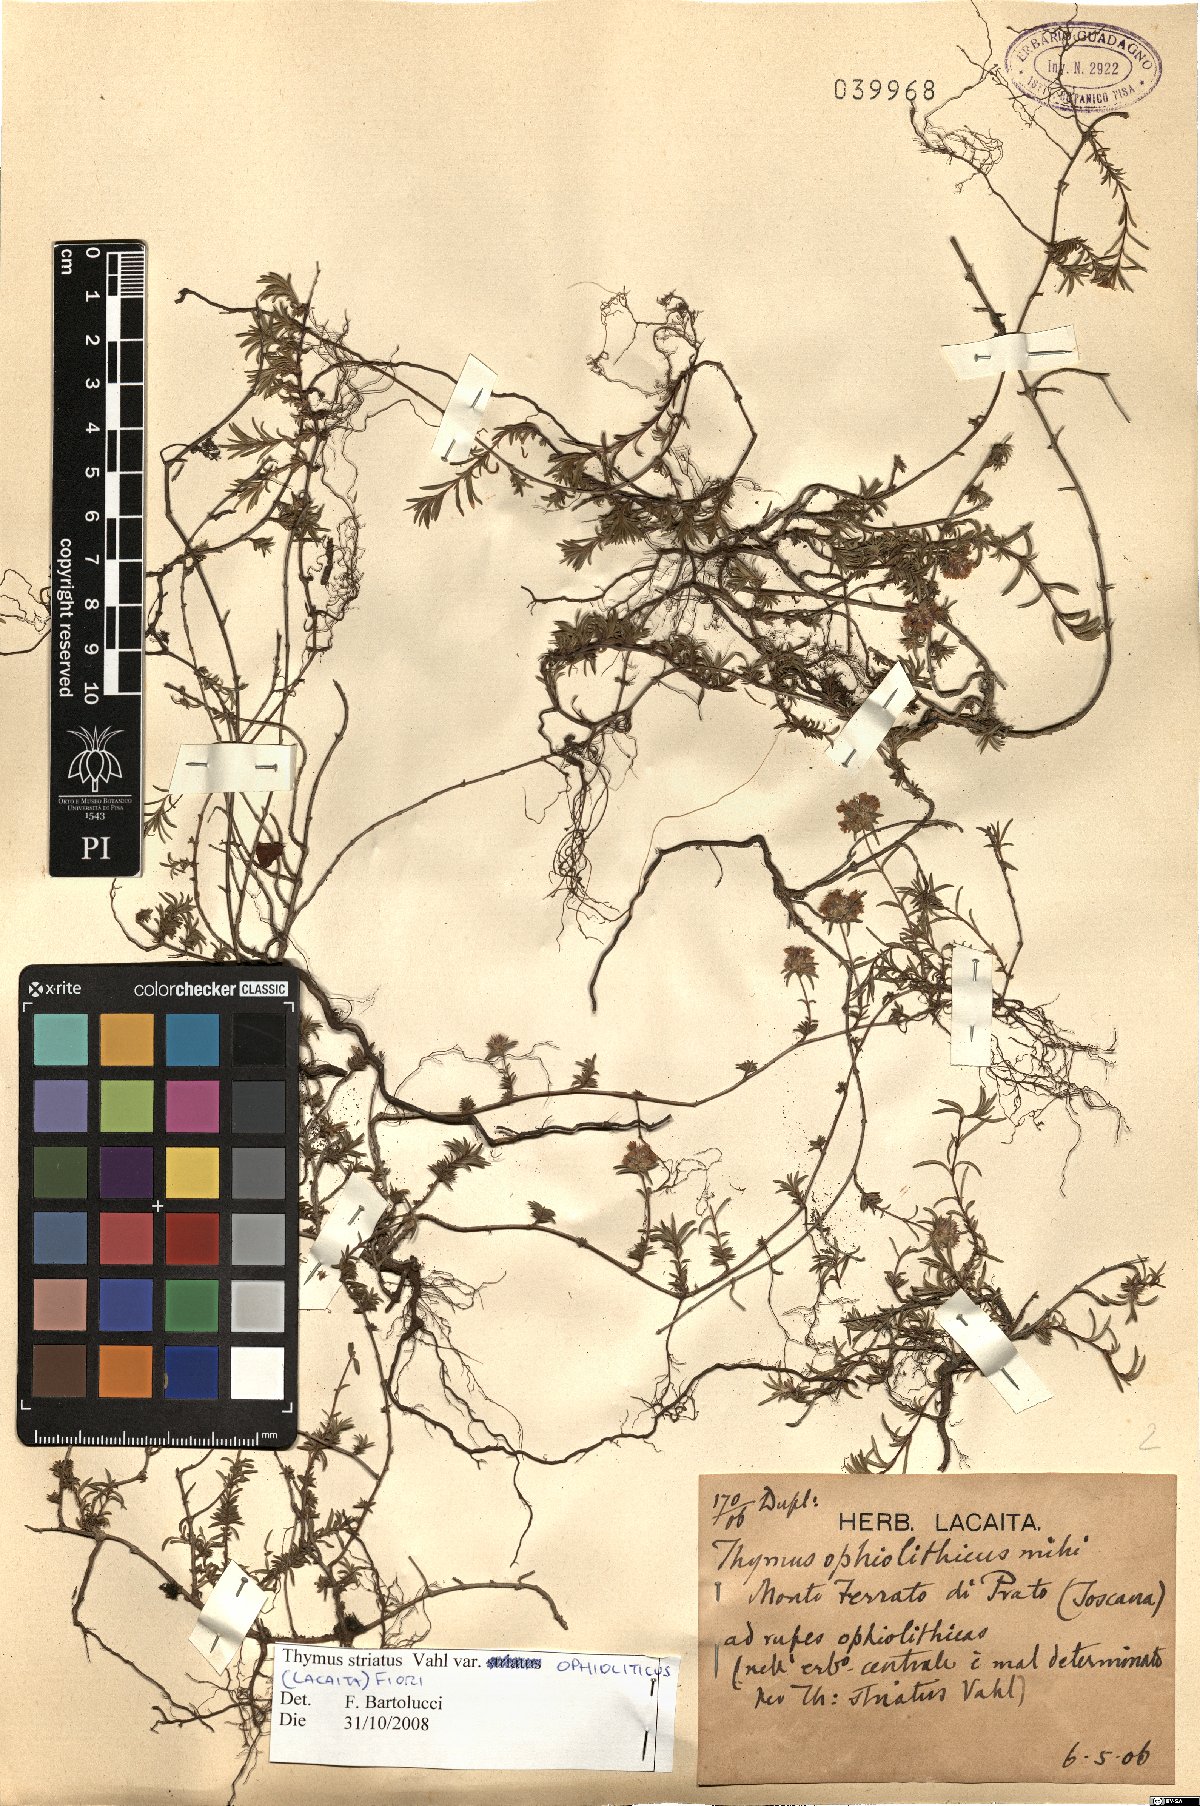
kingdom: Plantae
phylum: Tracheophyta
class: Magnoliopsida
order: Lamiales
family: Lamiaceae
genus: Thymus
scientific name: Thymus striatus
